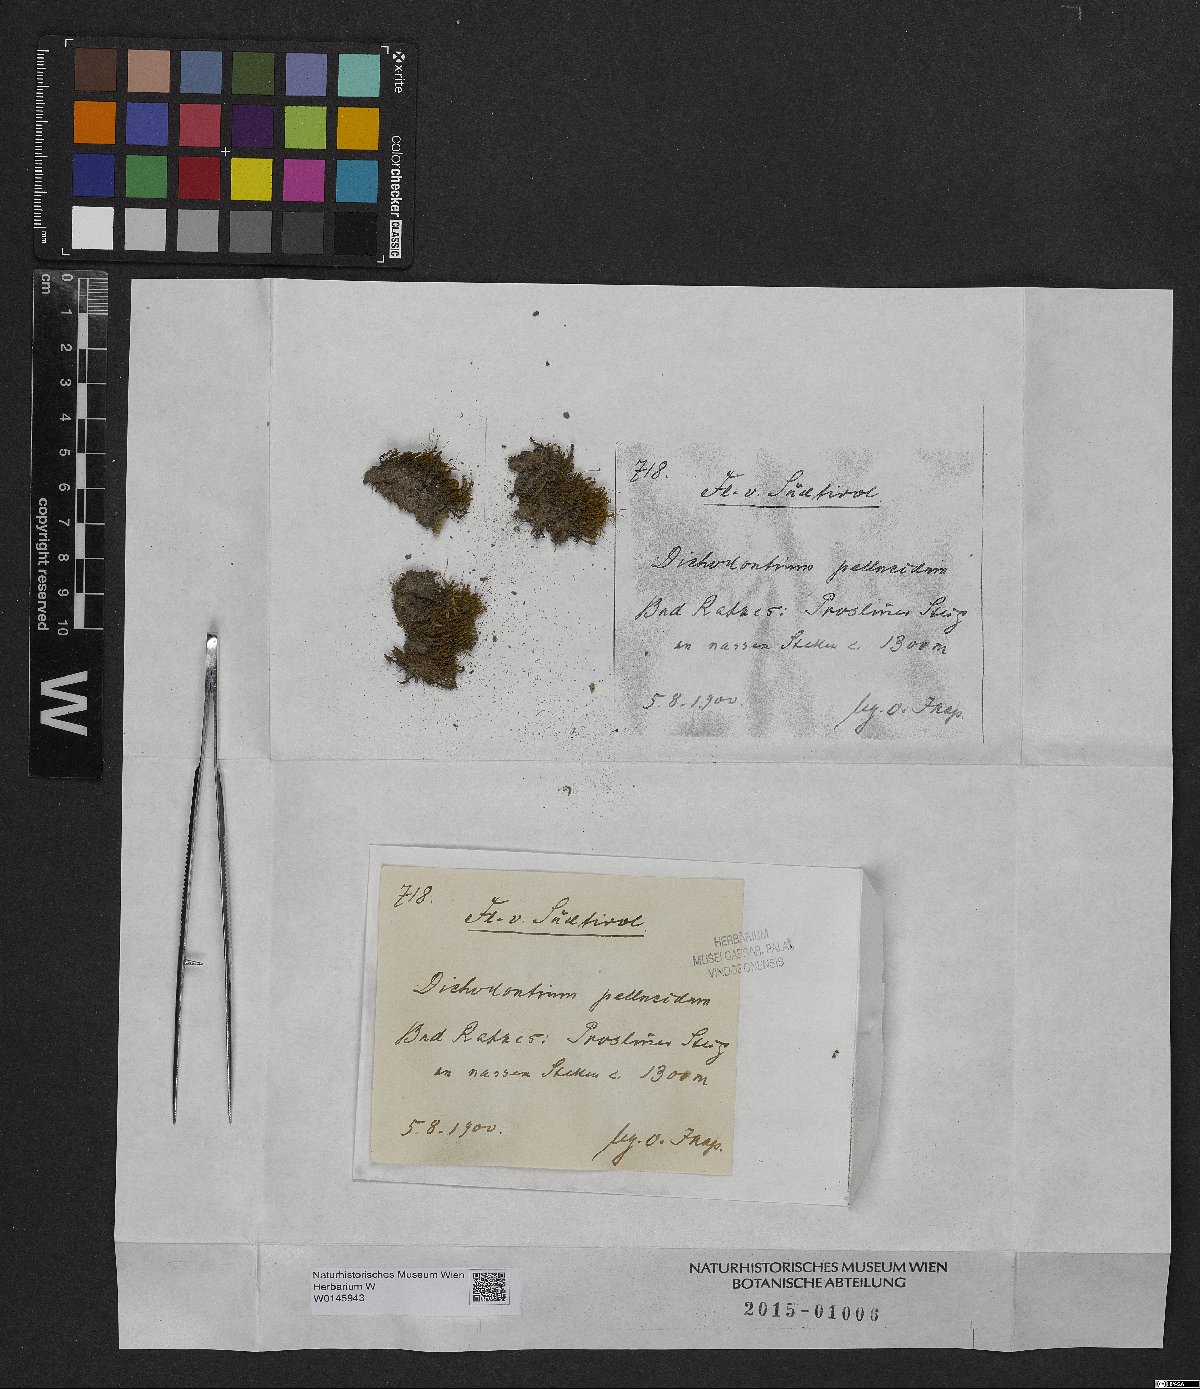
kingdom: Plantae
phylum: Bryophyta
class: Bryopsida
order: Dicranales
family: Aongstroemiaceae
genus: Dichodontium
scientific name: Dichodontium pellucidum
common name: Transparent fork moss
